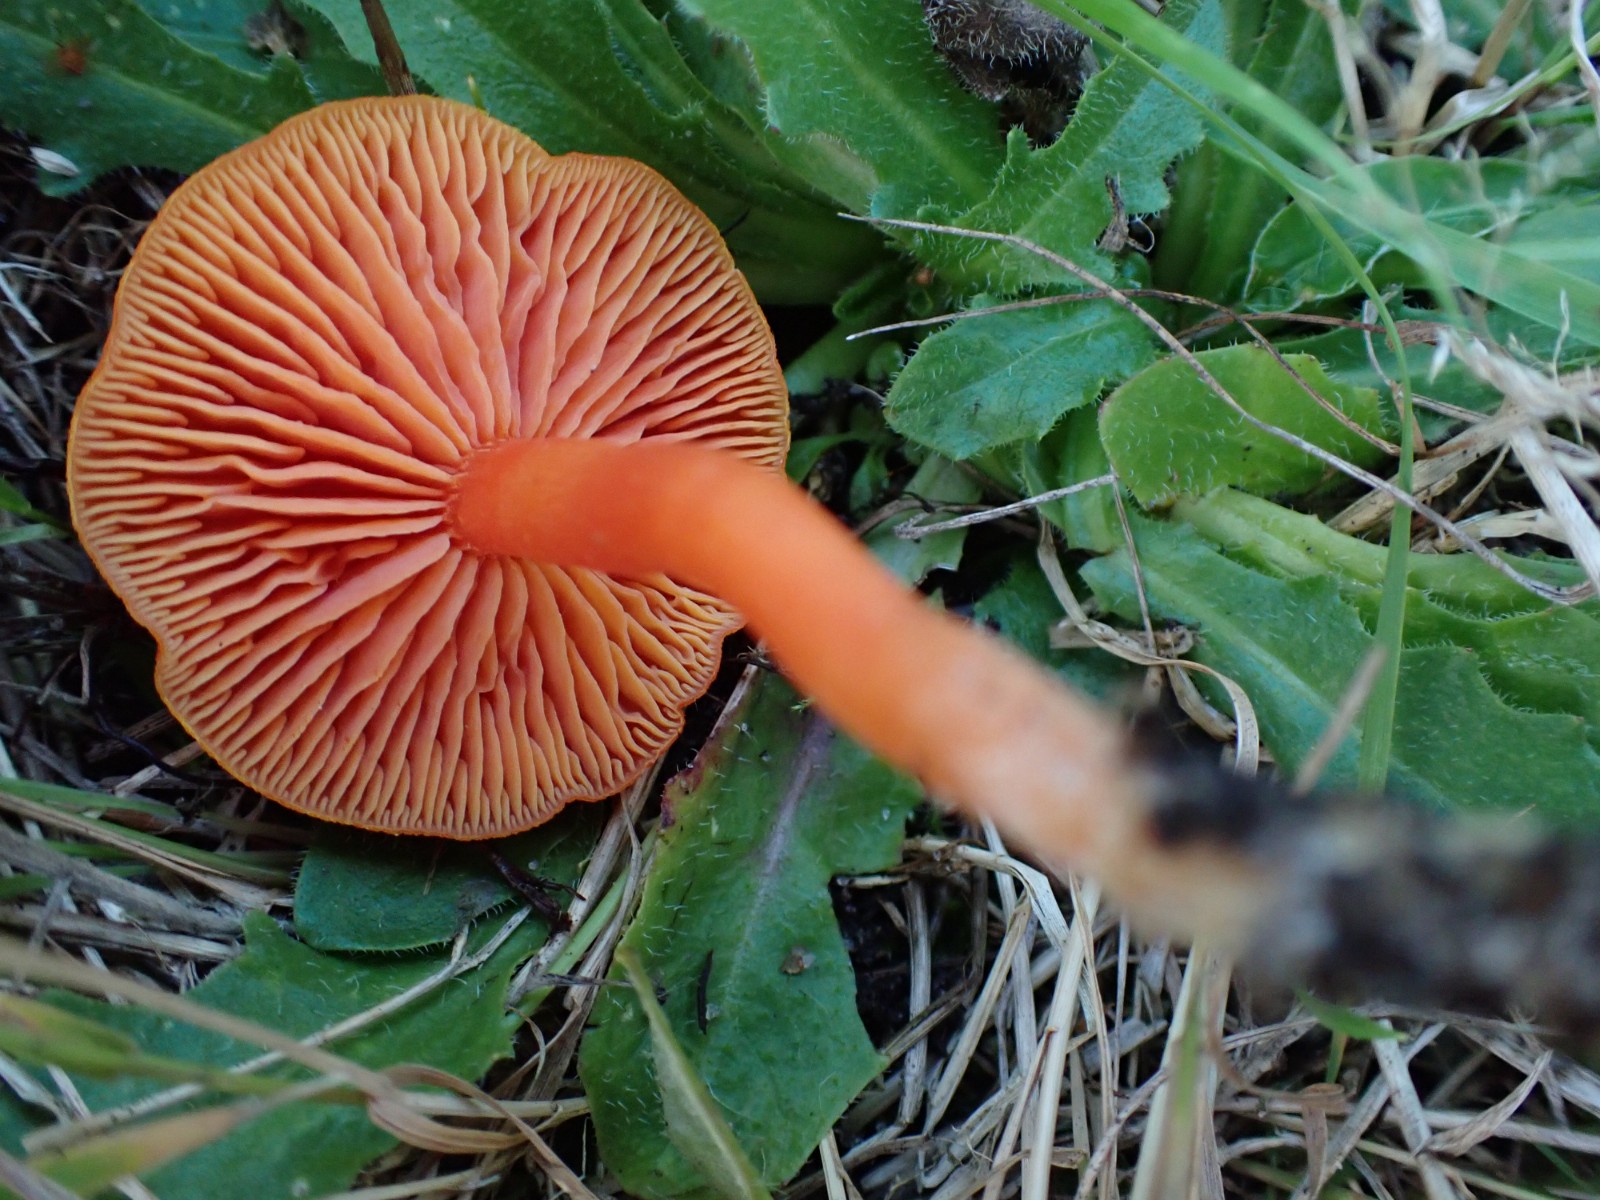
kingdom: Fungi
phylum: Basidiomycota
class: Agaricomycetes
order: Agaricales
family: Hygrophoraceae
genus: Hygrocybe
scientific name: Hygrocybe miniata
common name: mønje-vokshat
